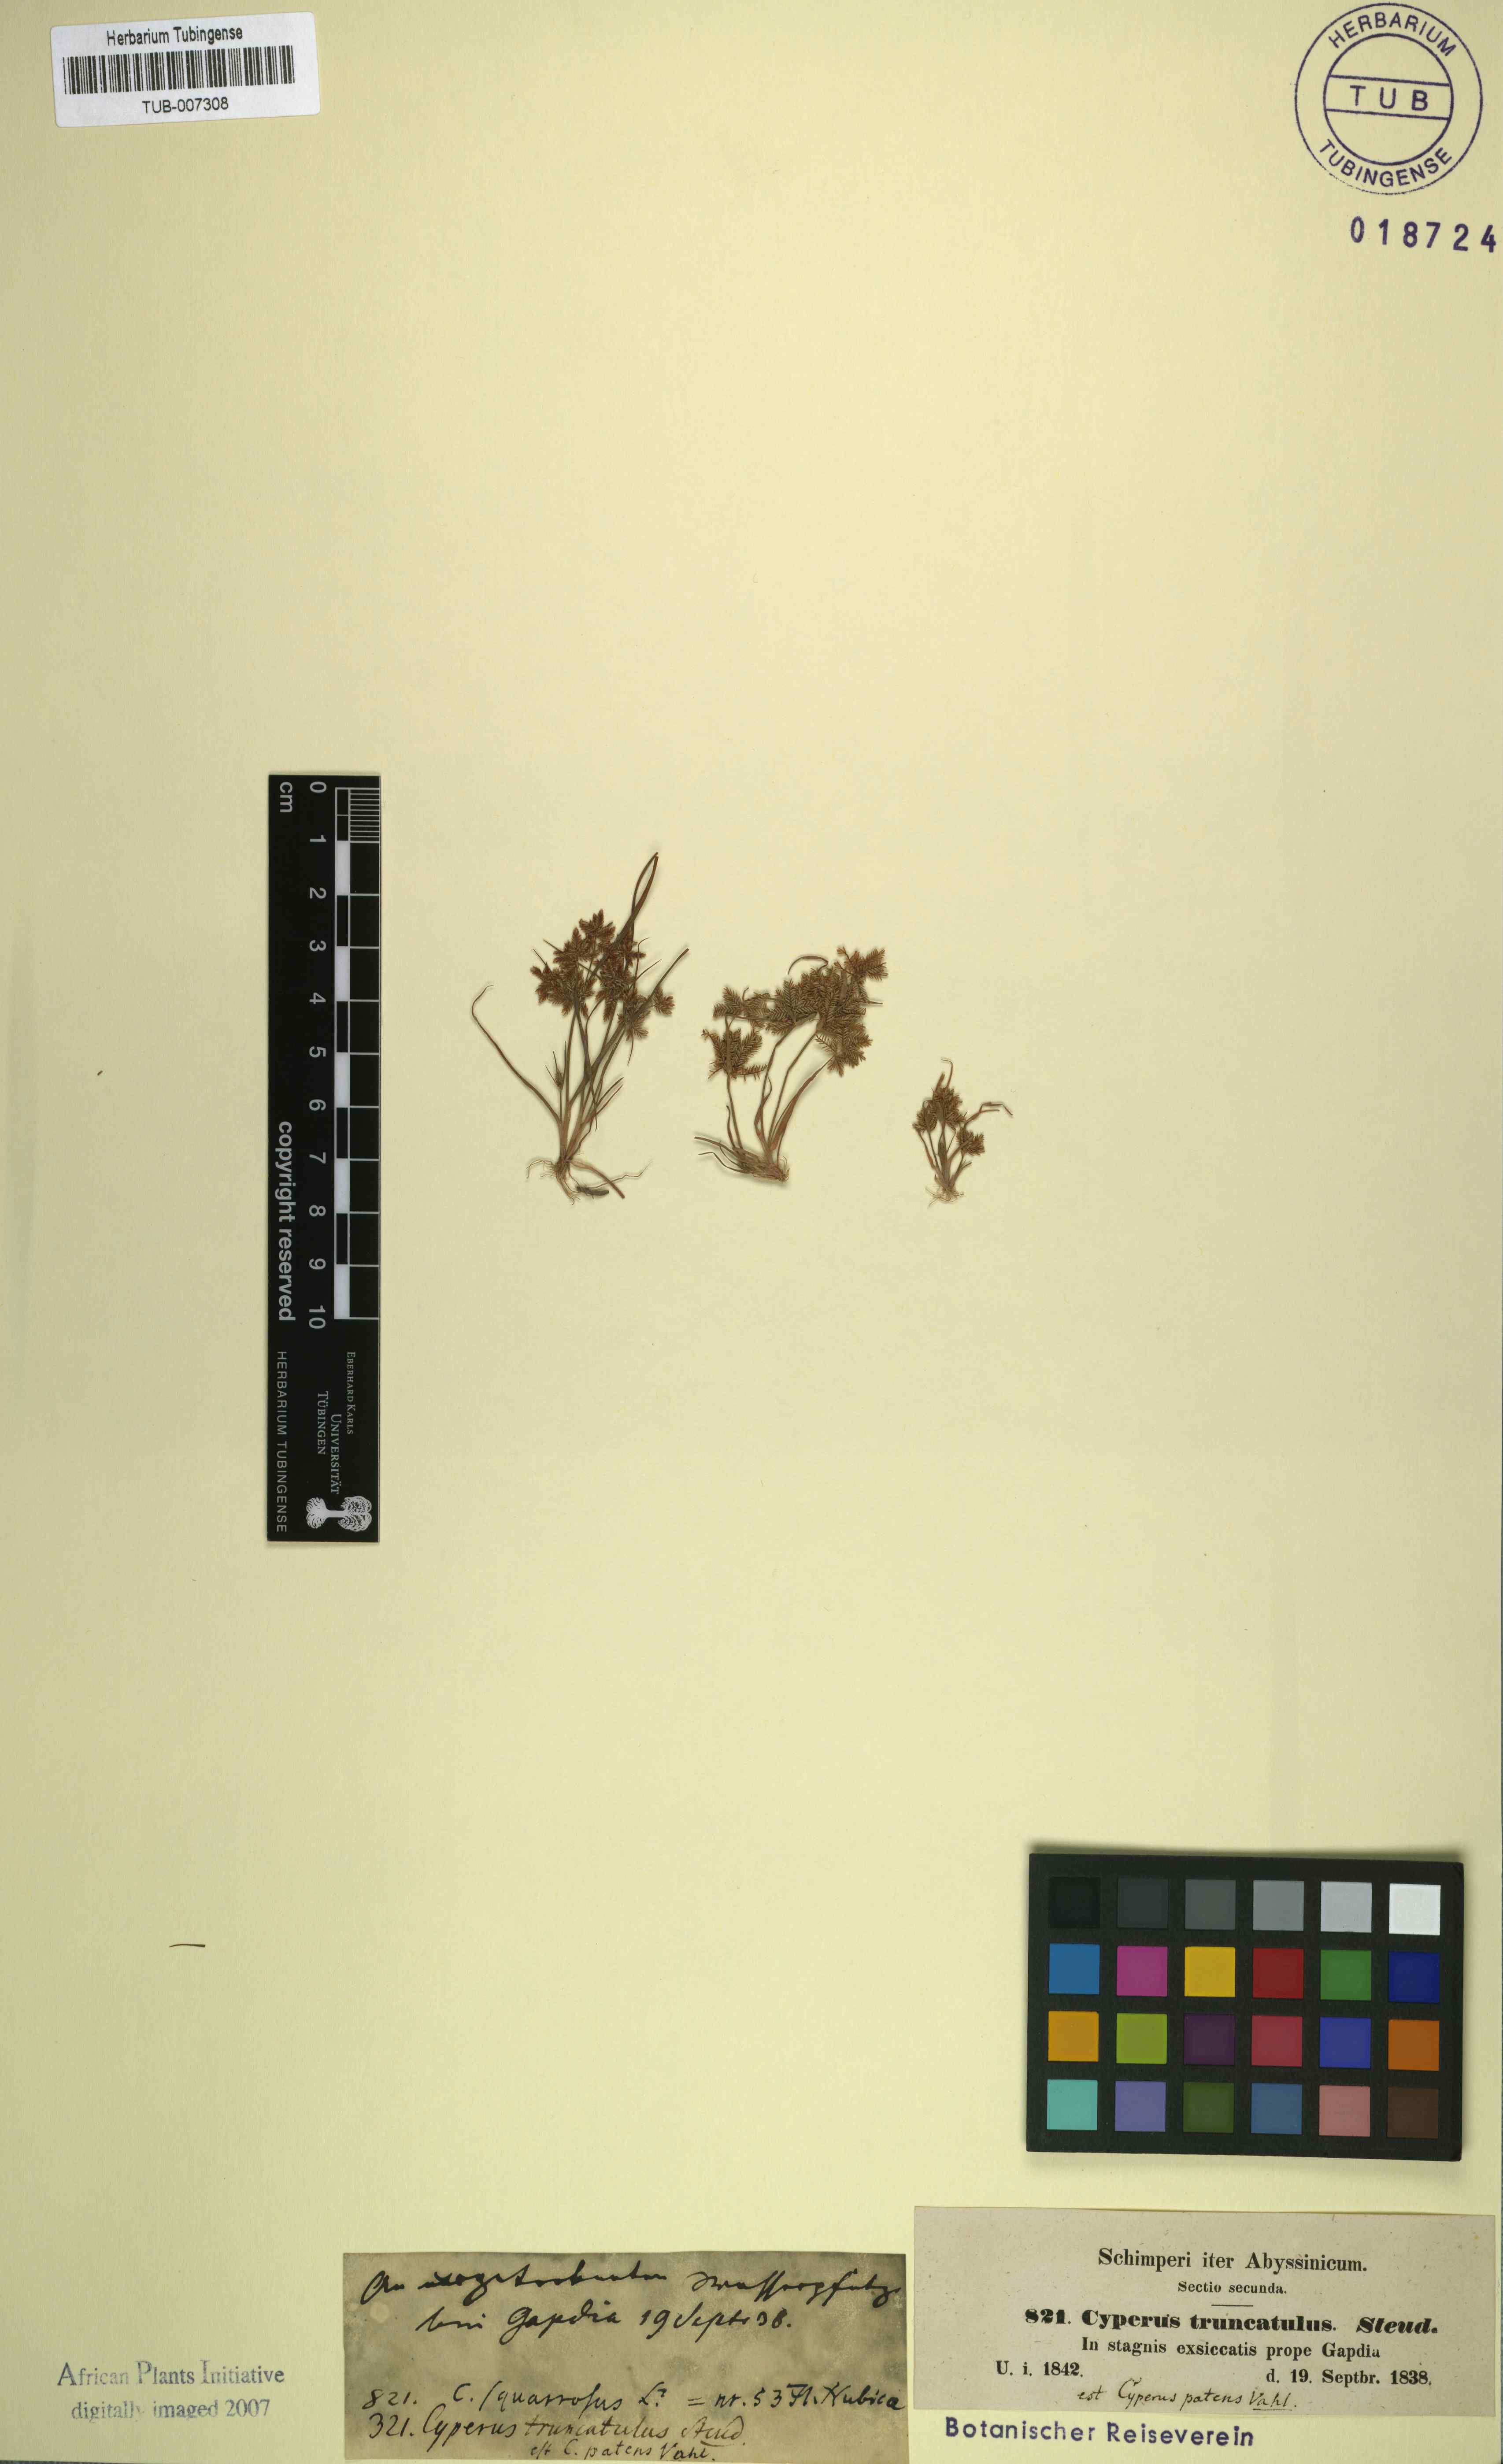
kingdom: Plantae
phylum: Tracheophyta
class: Liliopsida
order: Poales
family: Cyperaceae
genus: Cyperus
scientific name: Cyperus pumilus
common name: Low flatsedge
